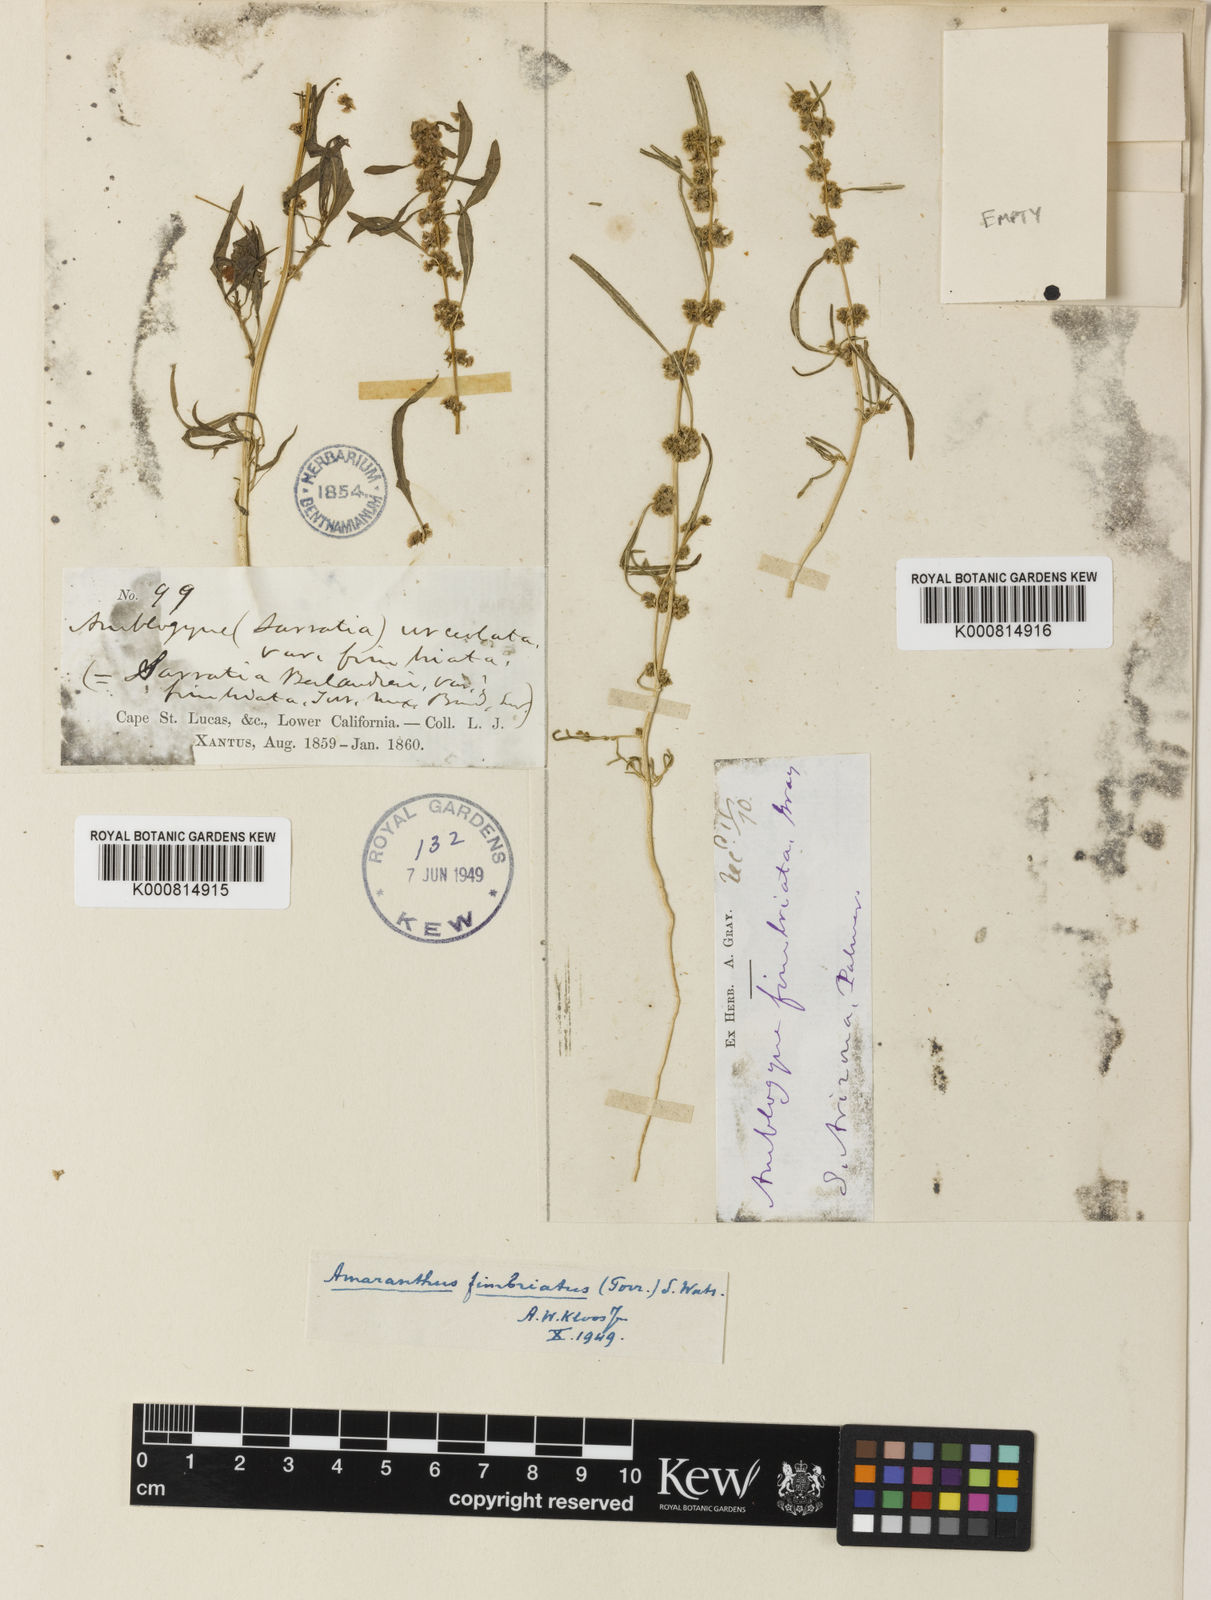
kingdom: Plantae
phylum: Tracheophyta
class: Magnoliopsida
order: Caryophyllales
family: Amaranthaceae
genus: Amaranthus
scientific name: Amaranthus
